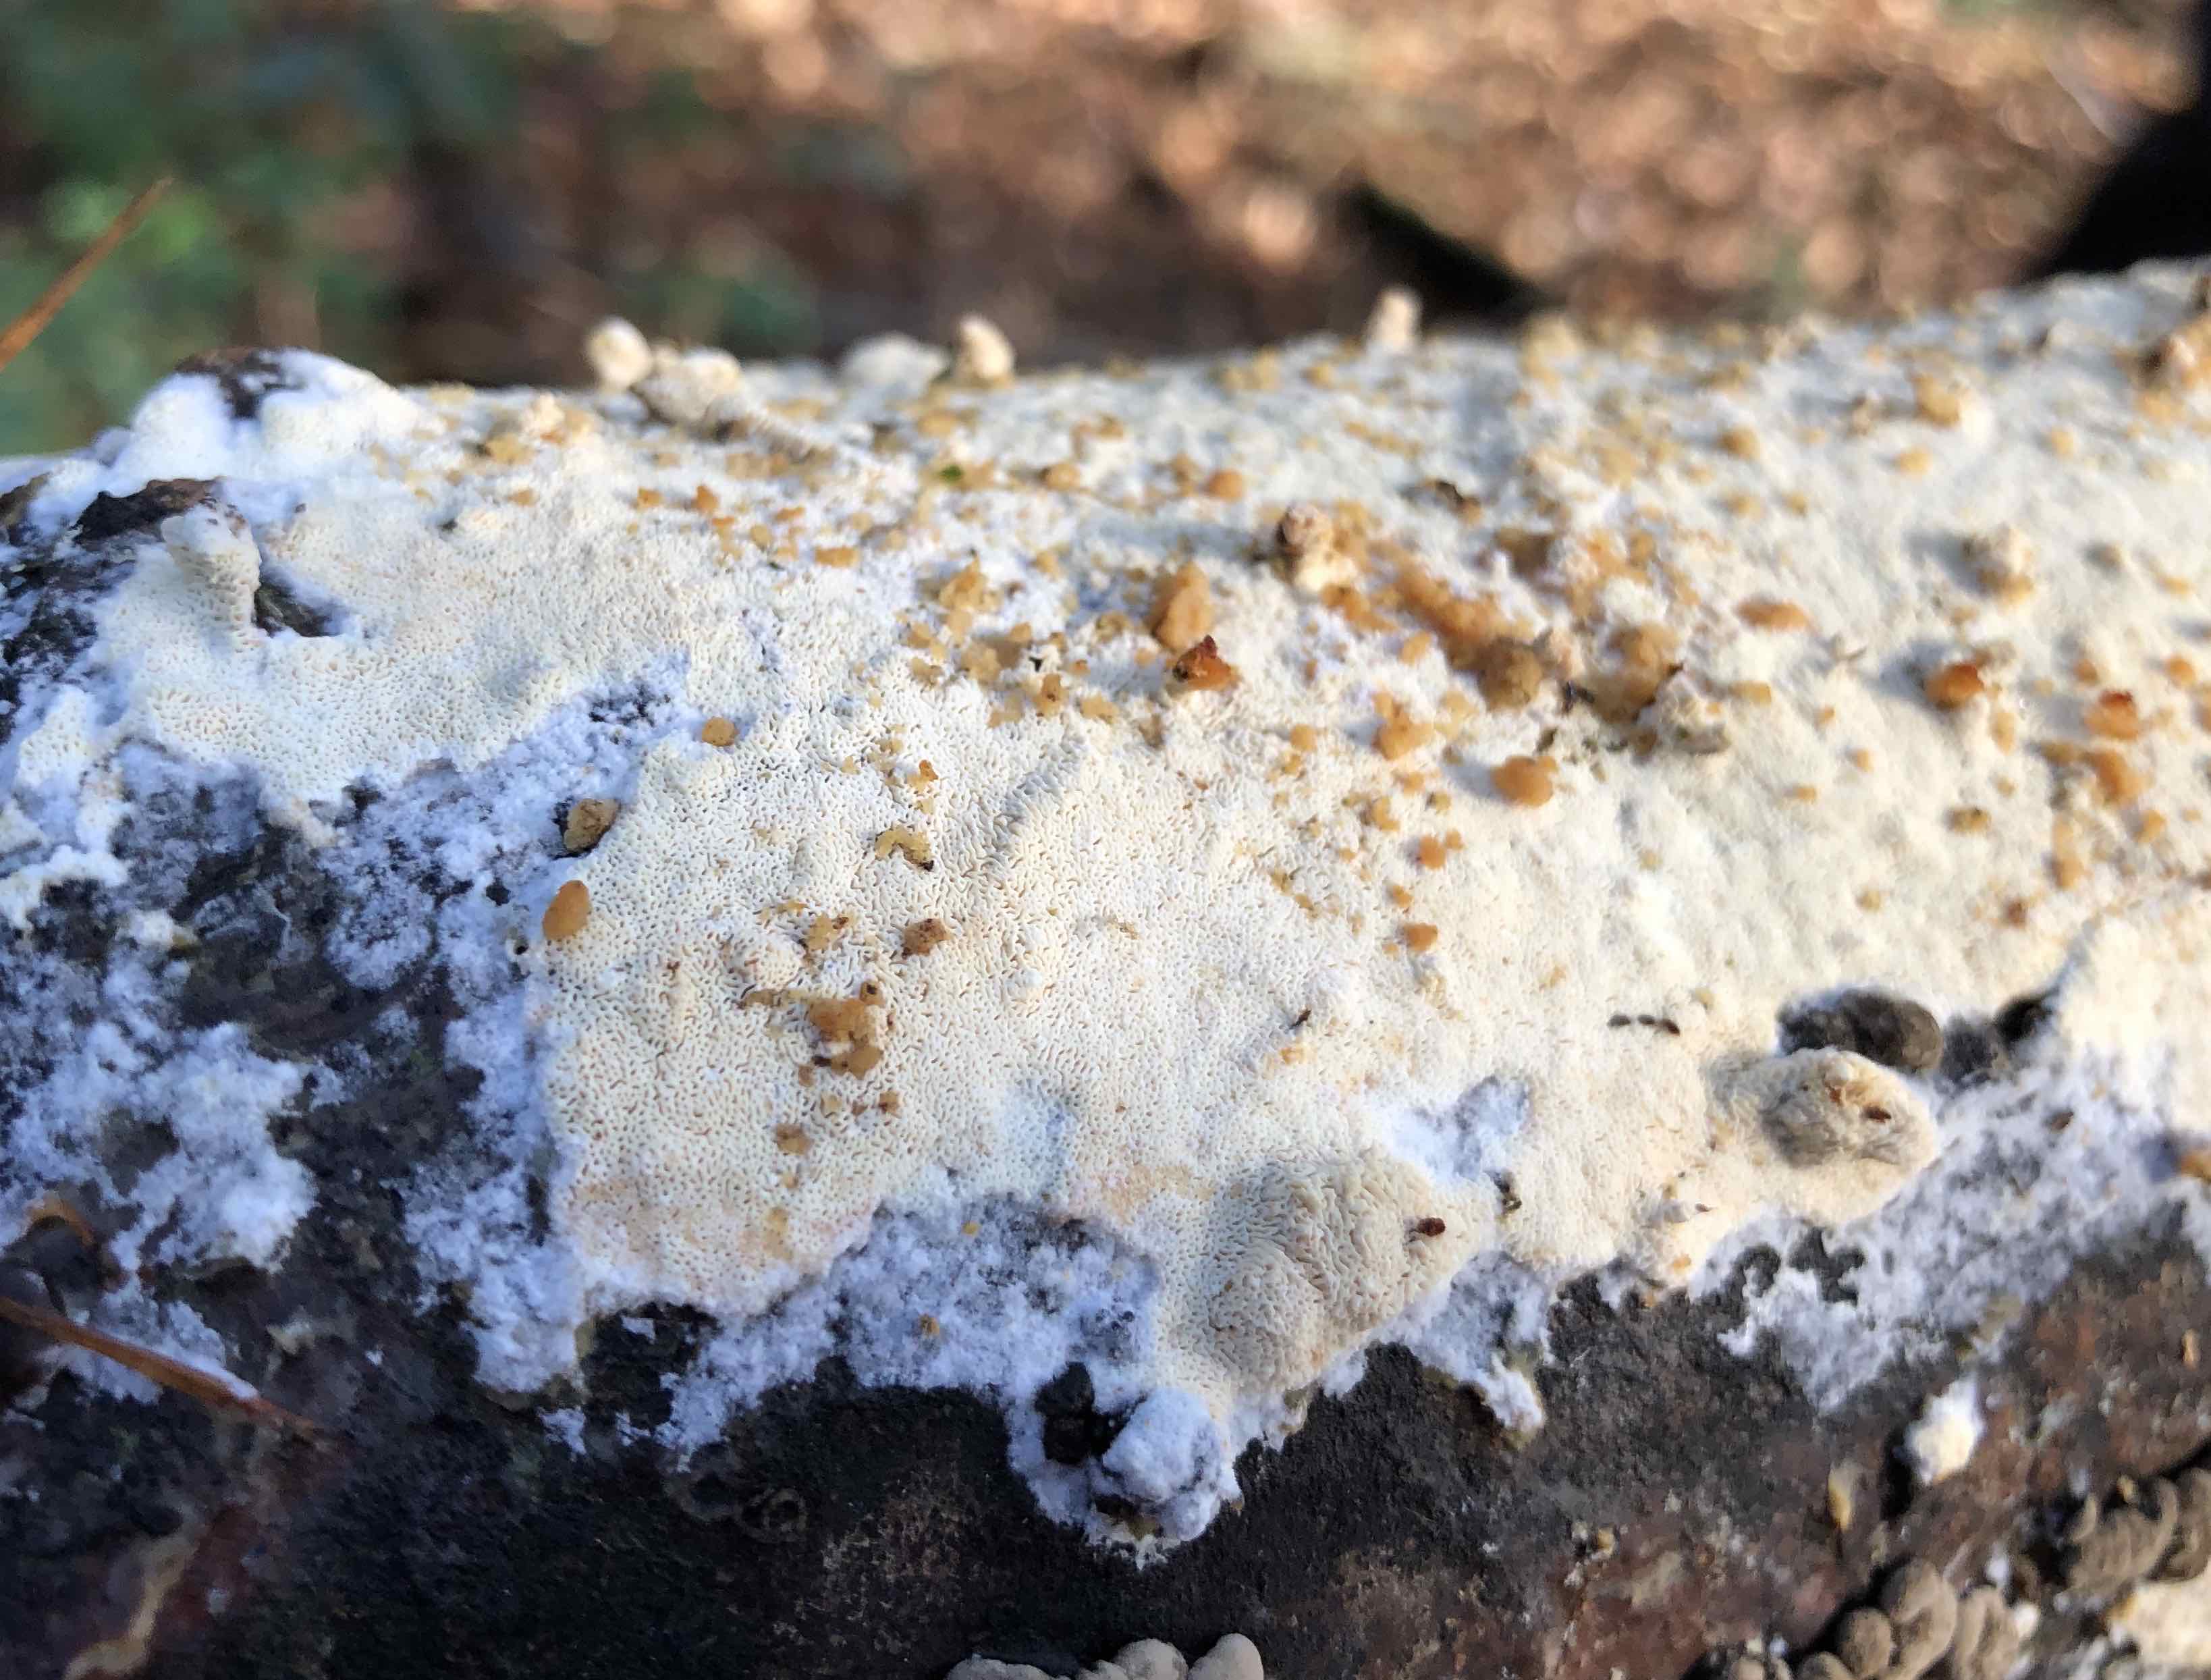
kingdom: Fungi
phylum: Basidiomycota
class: Agaricomycetes
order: Hymenochaetales
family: Schizoporaceae
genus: Xylodon
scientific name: Xylodon
